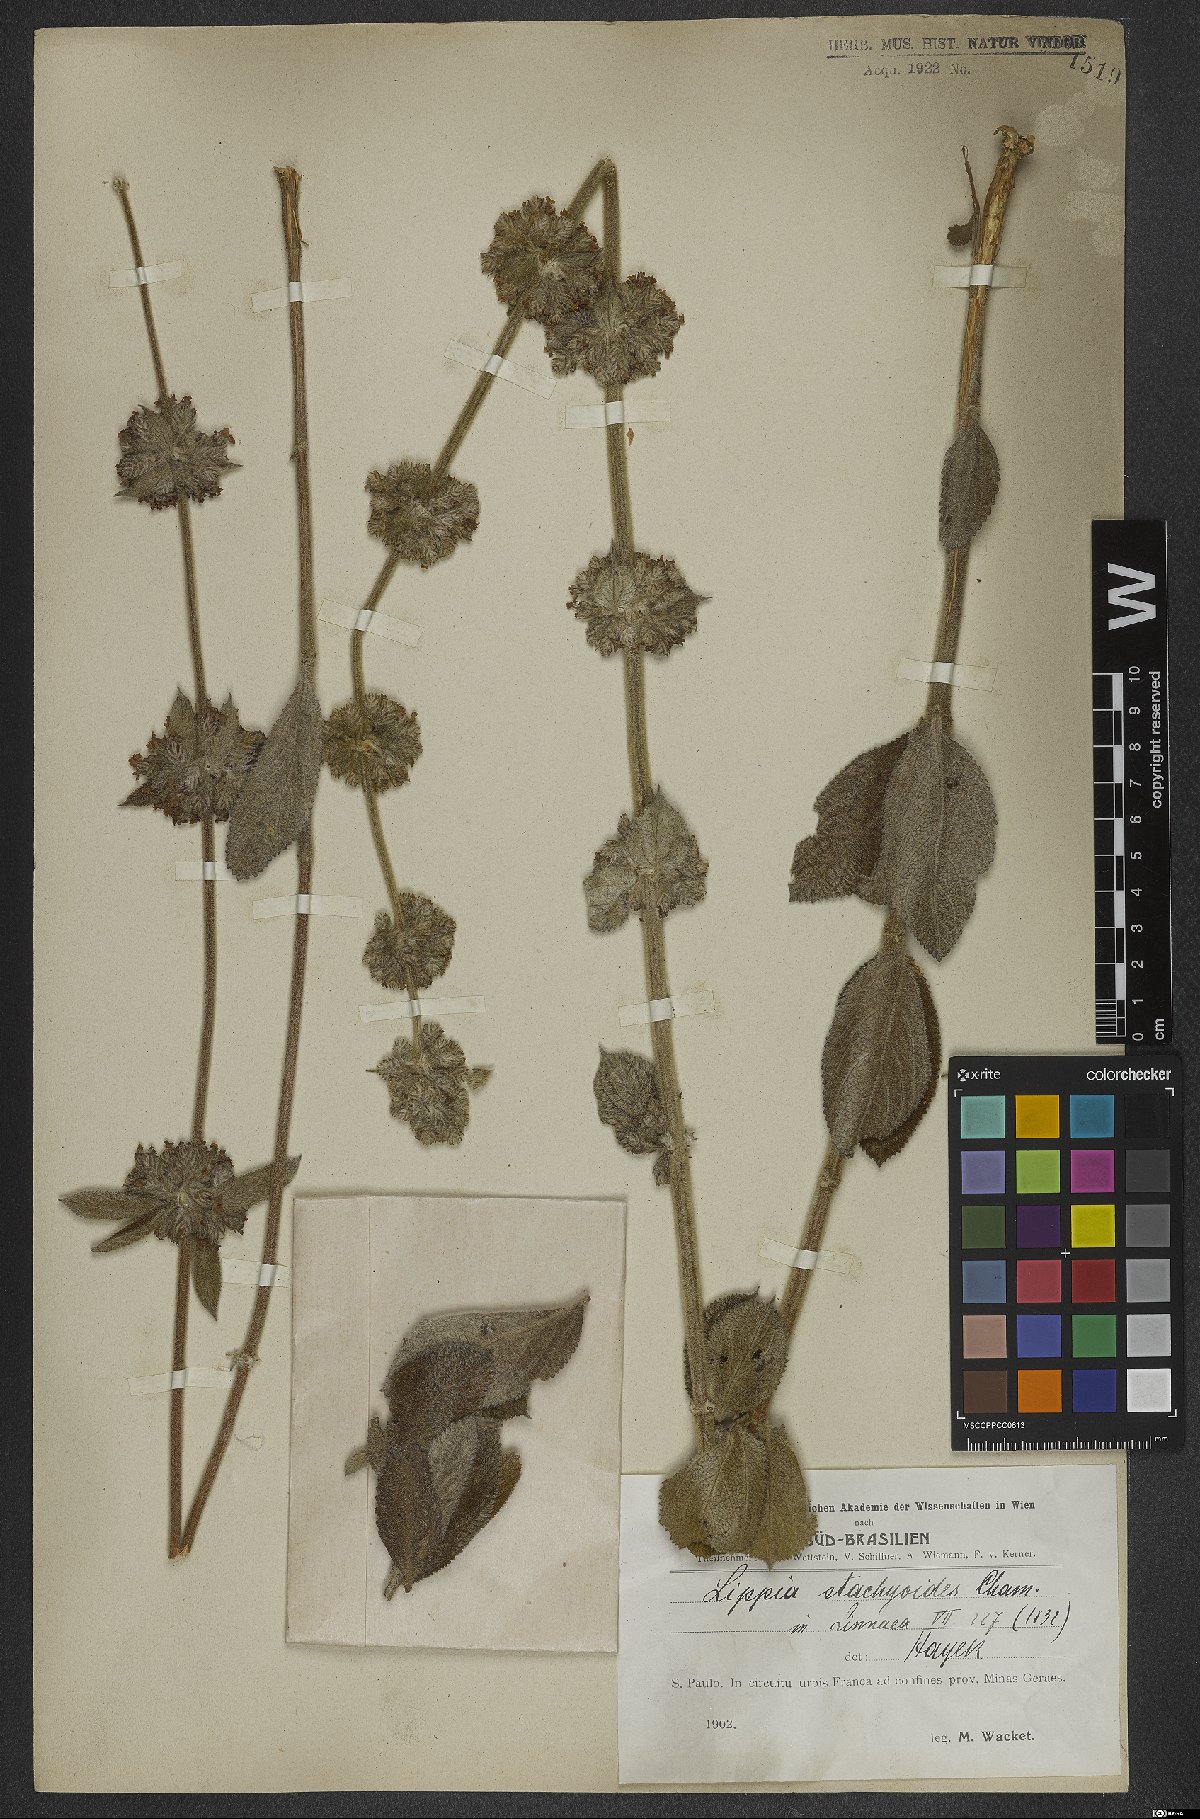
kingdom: Plantae
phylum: Tracheophyta
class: Magnoliopsida
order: Lamiales
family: Verbenaceae
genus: Lippia
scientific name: Lippia stachyoides
